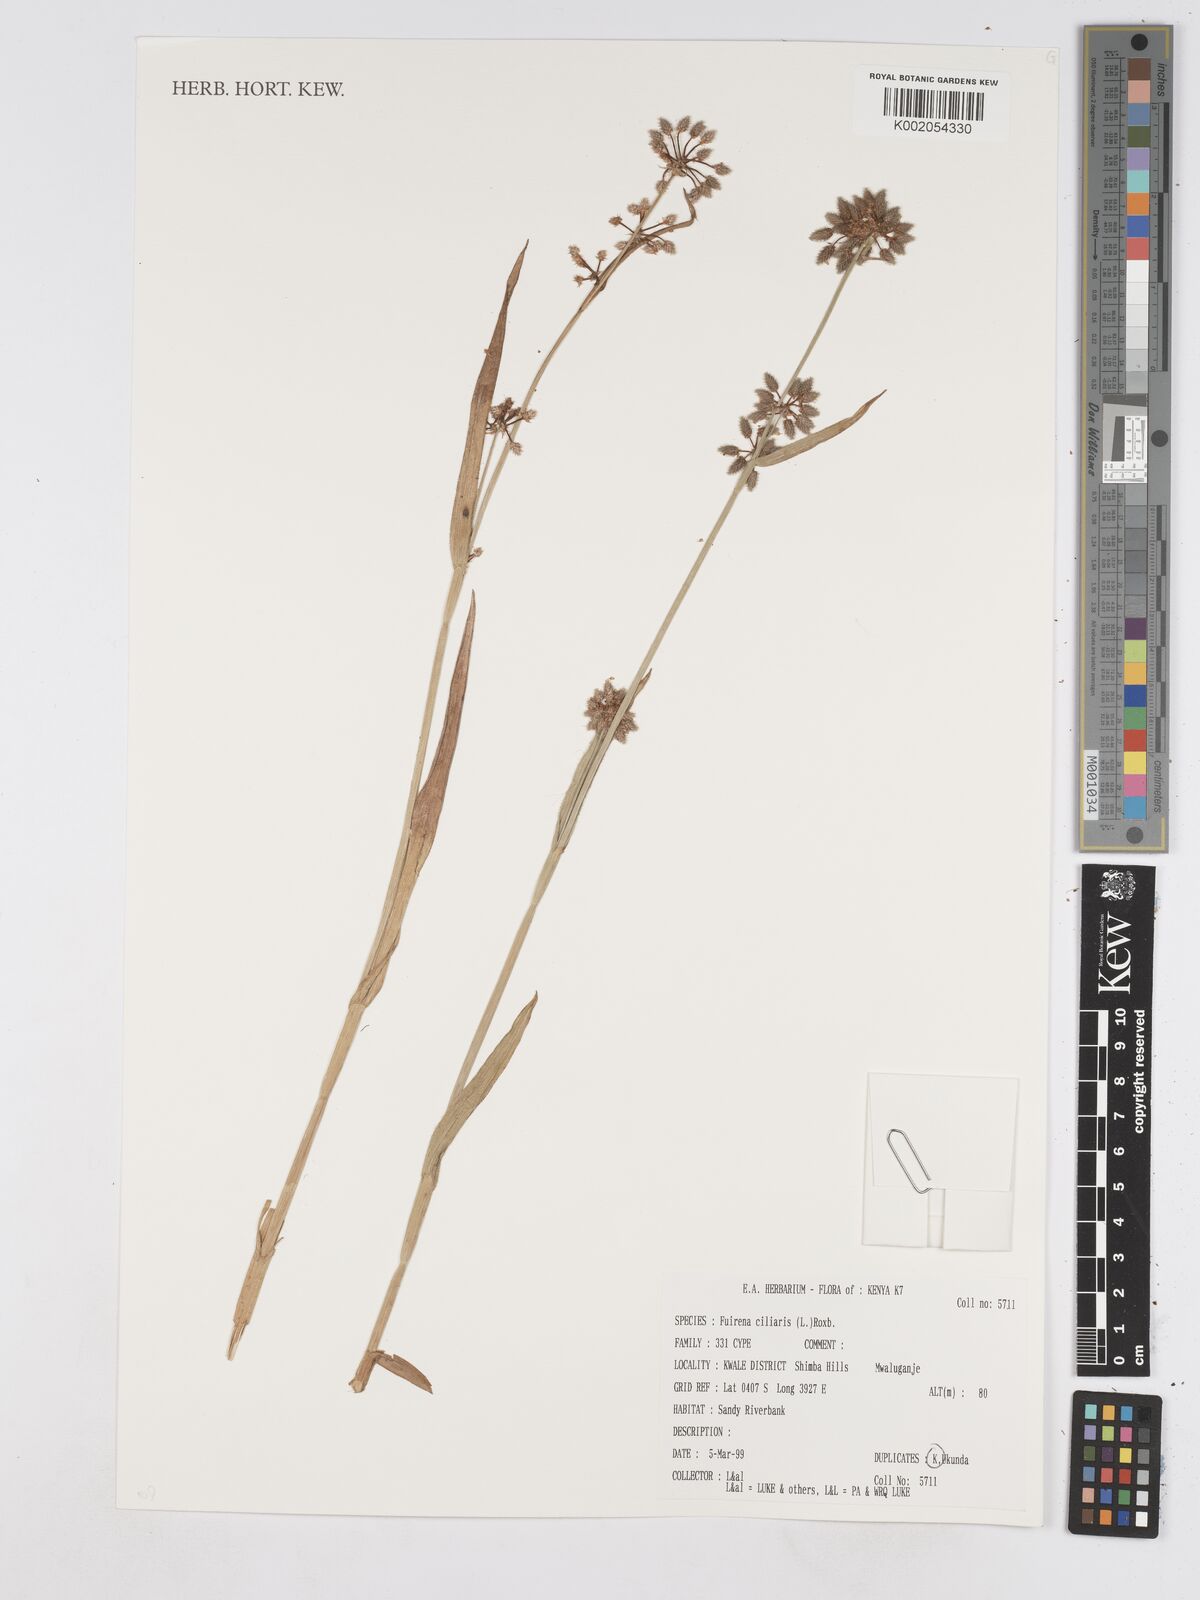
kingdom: Plantae
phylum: Tracheophyta
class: Liliopsida
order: Poales
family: Cyperaceae
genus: Fuirena
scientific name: Fuirena ciliaris
